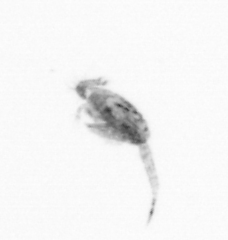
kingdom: Animalia
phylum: Arthropoda
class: Copepoda
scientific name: Copepoda
